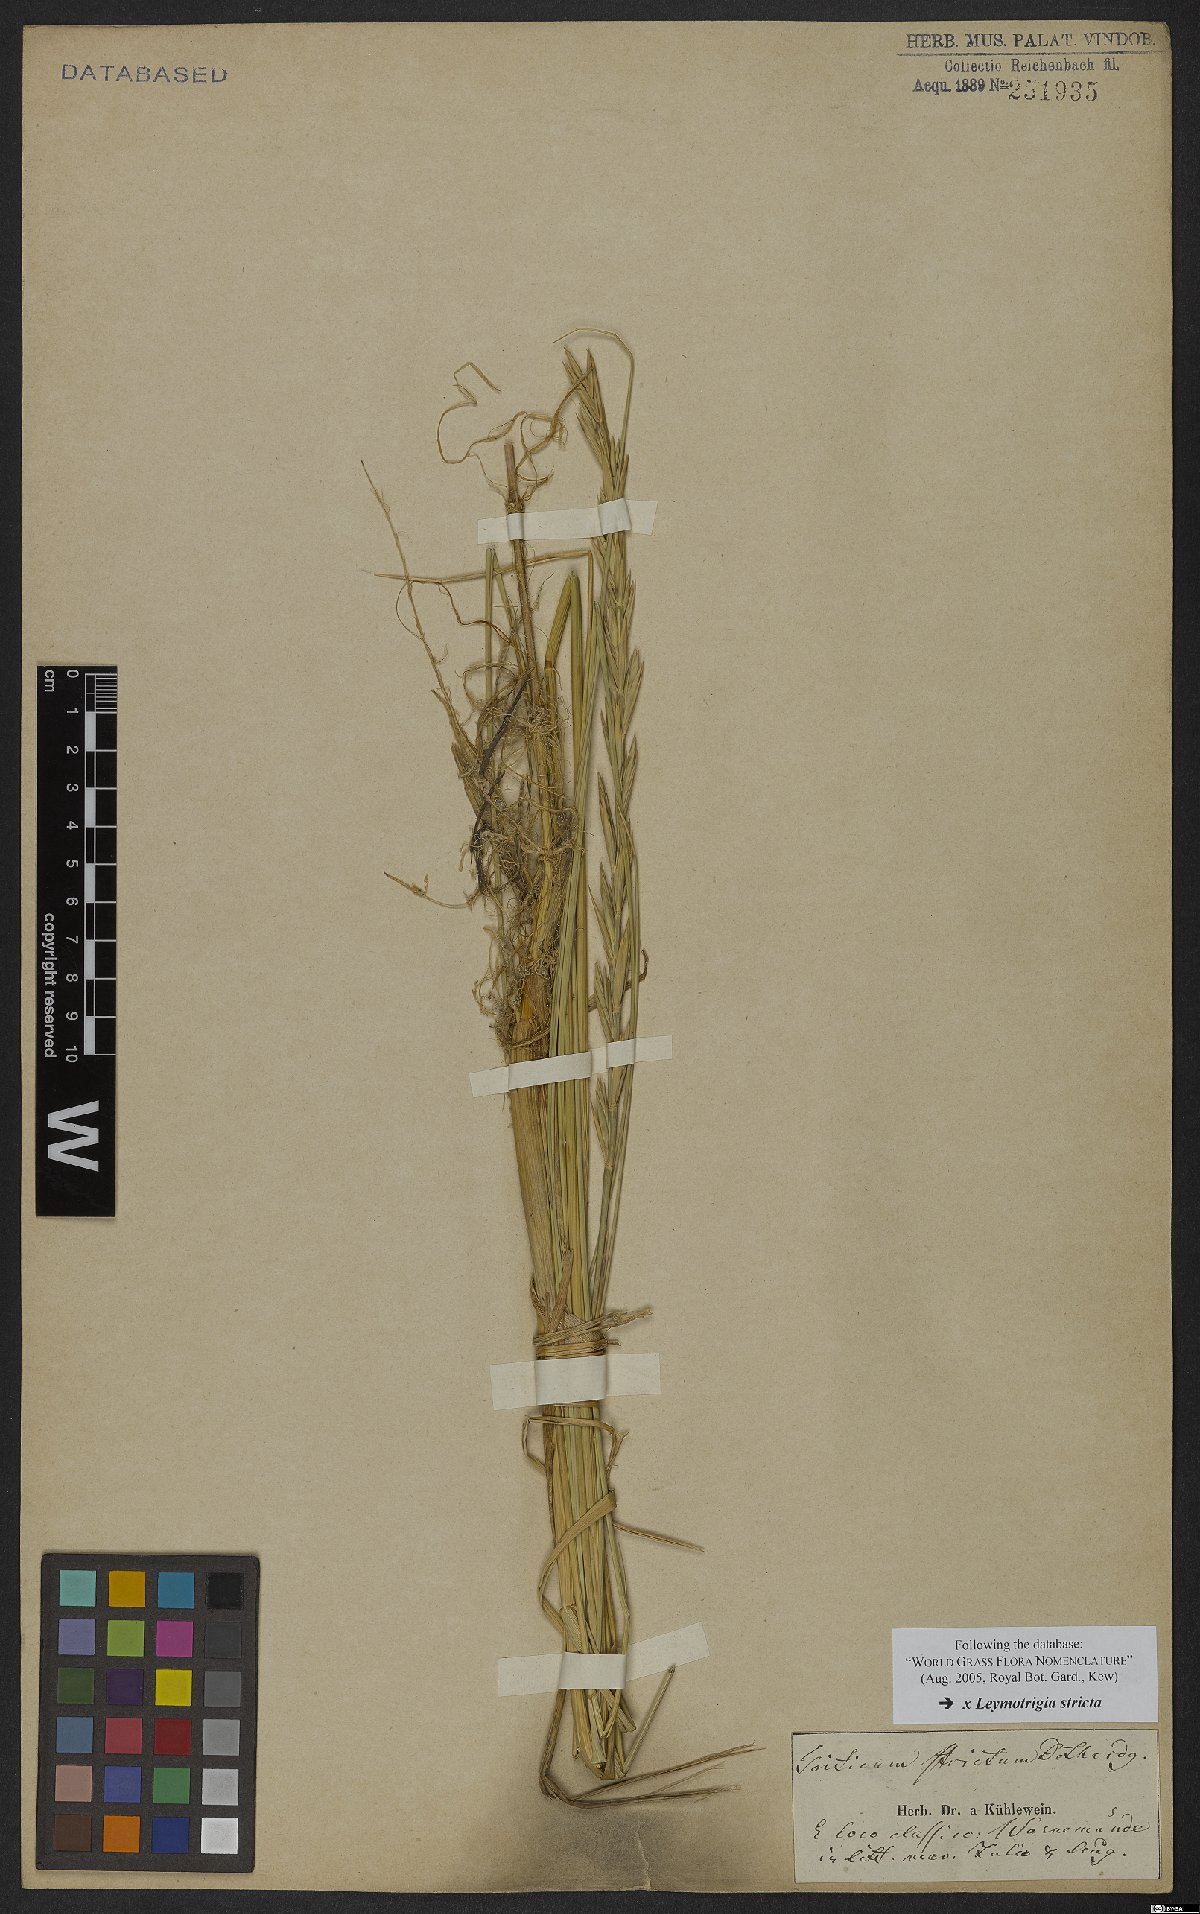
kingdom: Plantae
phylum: Tracheophyta
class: Liliopsida
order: Poales
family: Poaceae
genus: Elyleymus
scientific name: Elyleymus strictus
